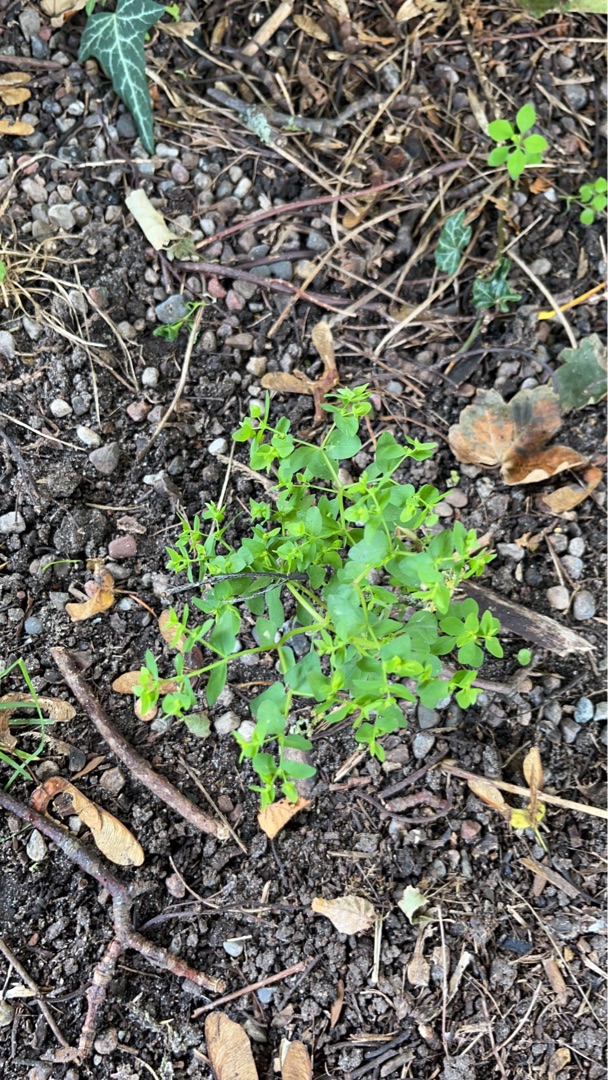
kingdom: Plantae
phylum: Tracheophyta
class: Magnoliopsida
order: Malpighiales
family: Euphorbiaceae
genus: Euphorbia
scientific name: Euphorbia peplus
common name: Gaffel-vortemælk
